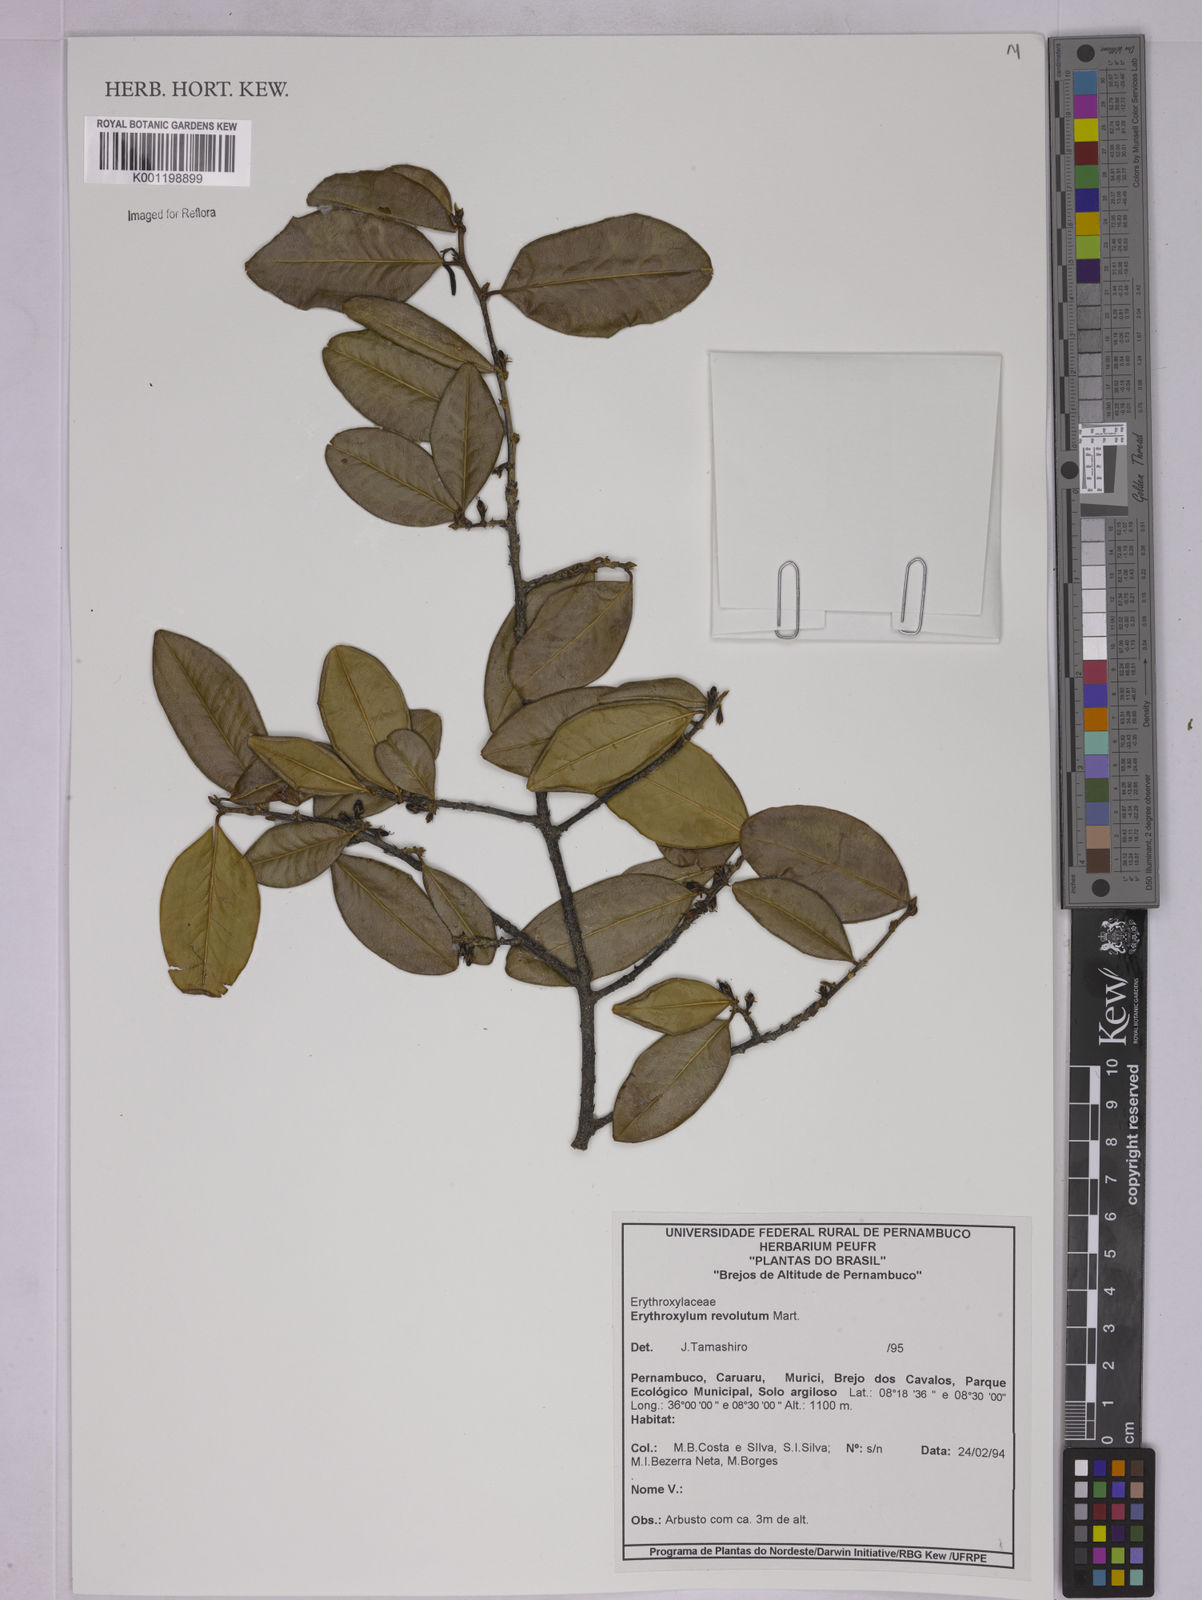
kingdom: Plantae
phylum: Tracheophyta
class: Magnoliopsida
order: Malpighiales
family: Erythroxylaceae
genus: Erythroxylum
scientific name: Erythroxylum revolutum
